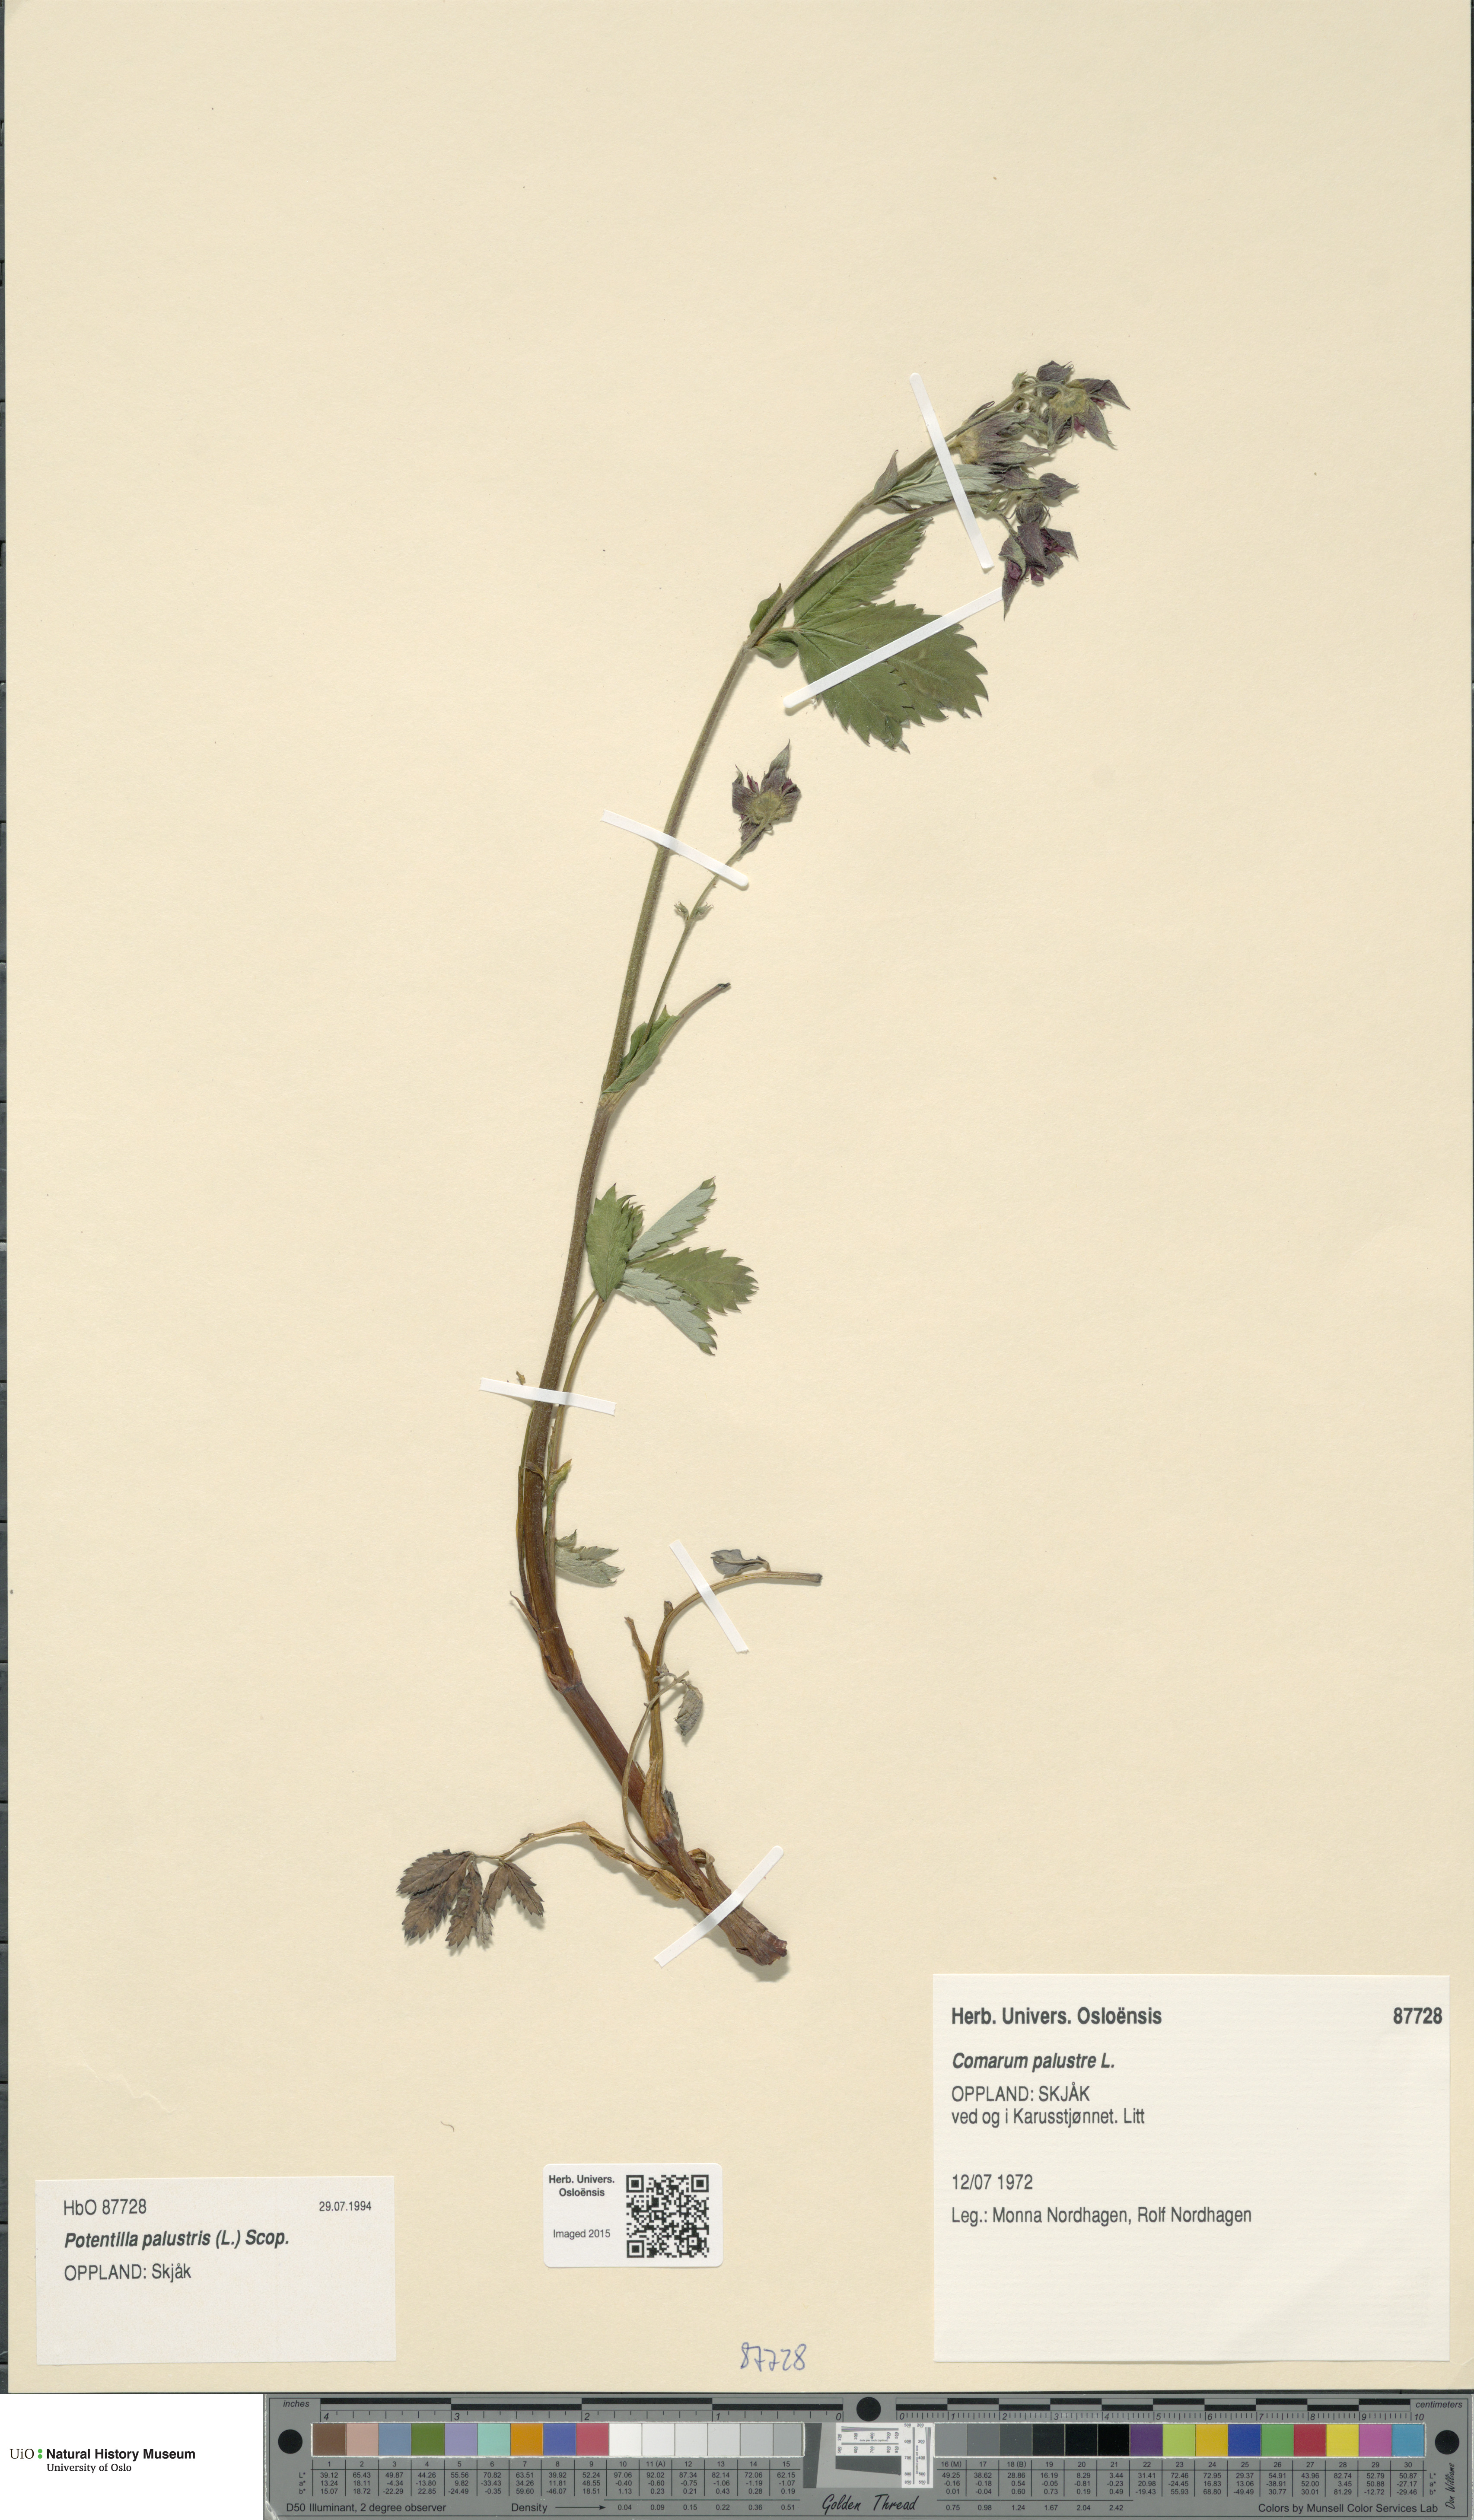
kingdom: Plantae
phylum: Tracheophyta
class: Magnoliopsida
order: Rosales
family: Rosaceae
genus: Comarum
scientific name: Comarum palustre
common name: Marsh cinquefoil
